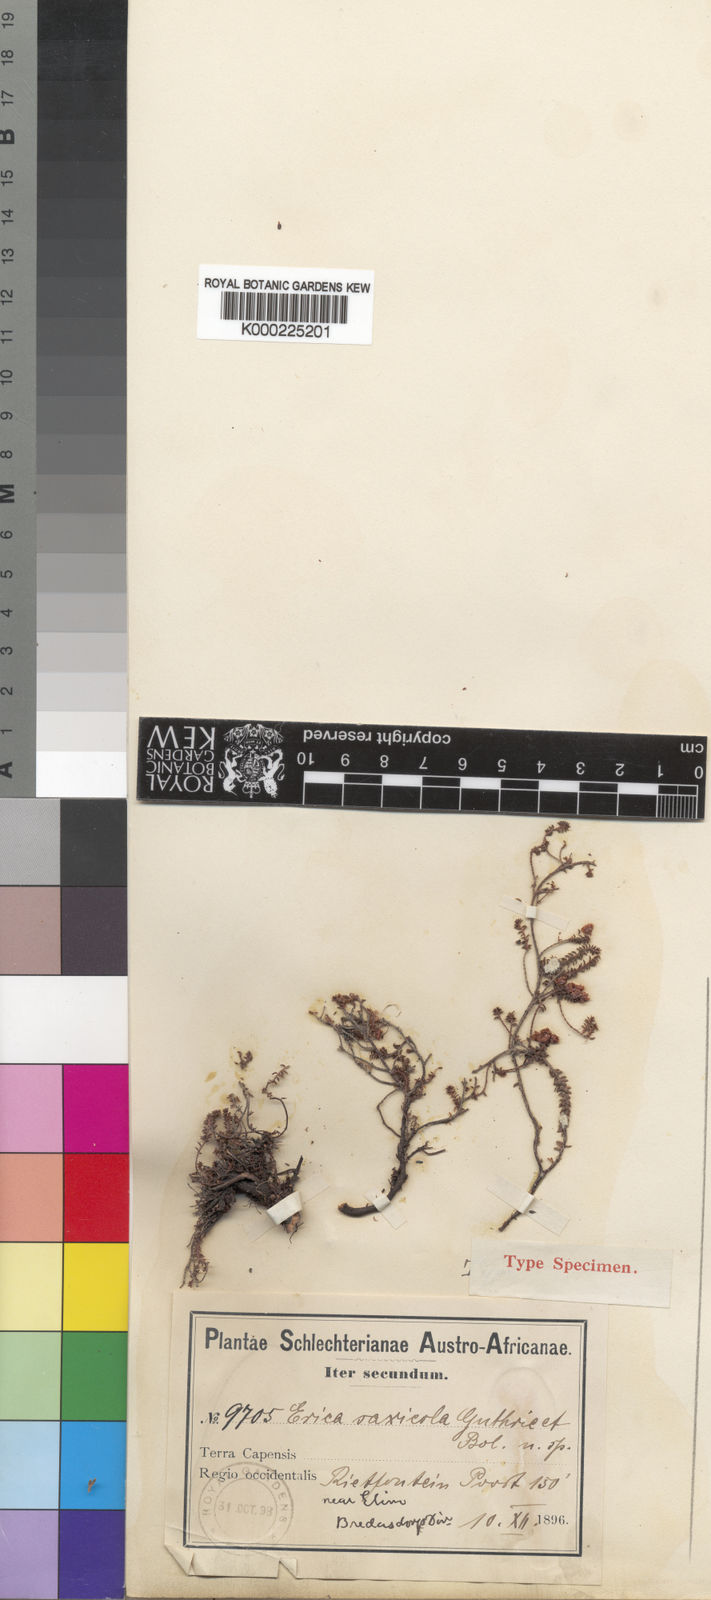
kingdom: Plantae
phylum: Tracheophyta
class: Magnoliopsida
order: Ericales
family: Ericaceae
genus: Erica
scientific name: Erica saxicola
